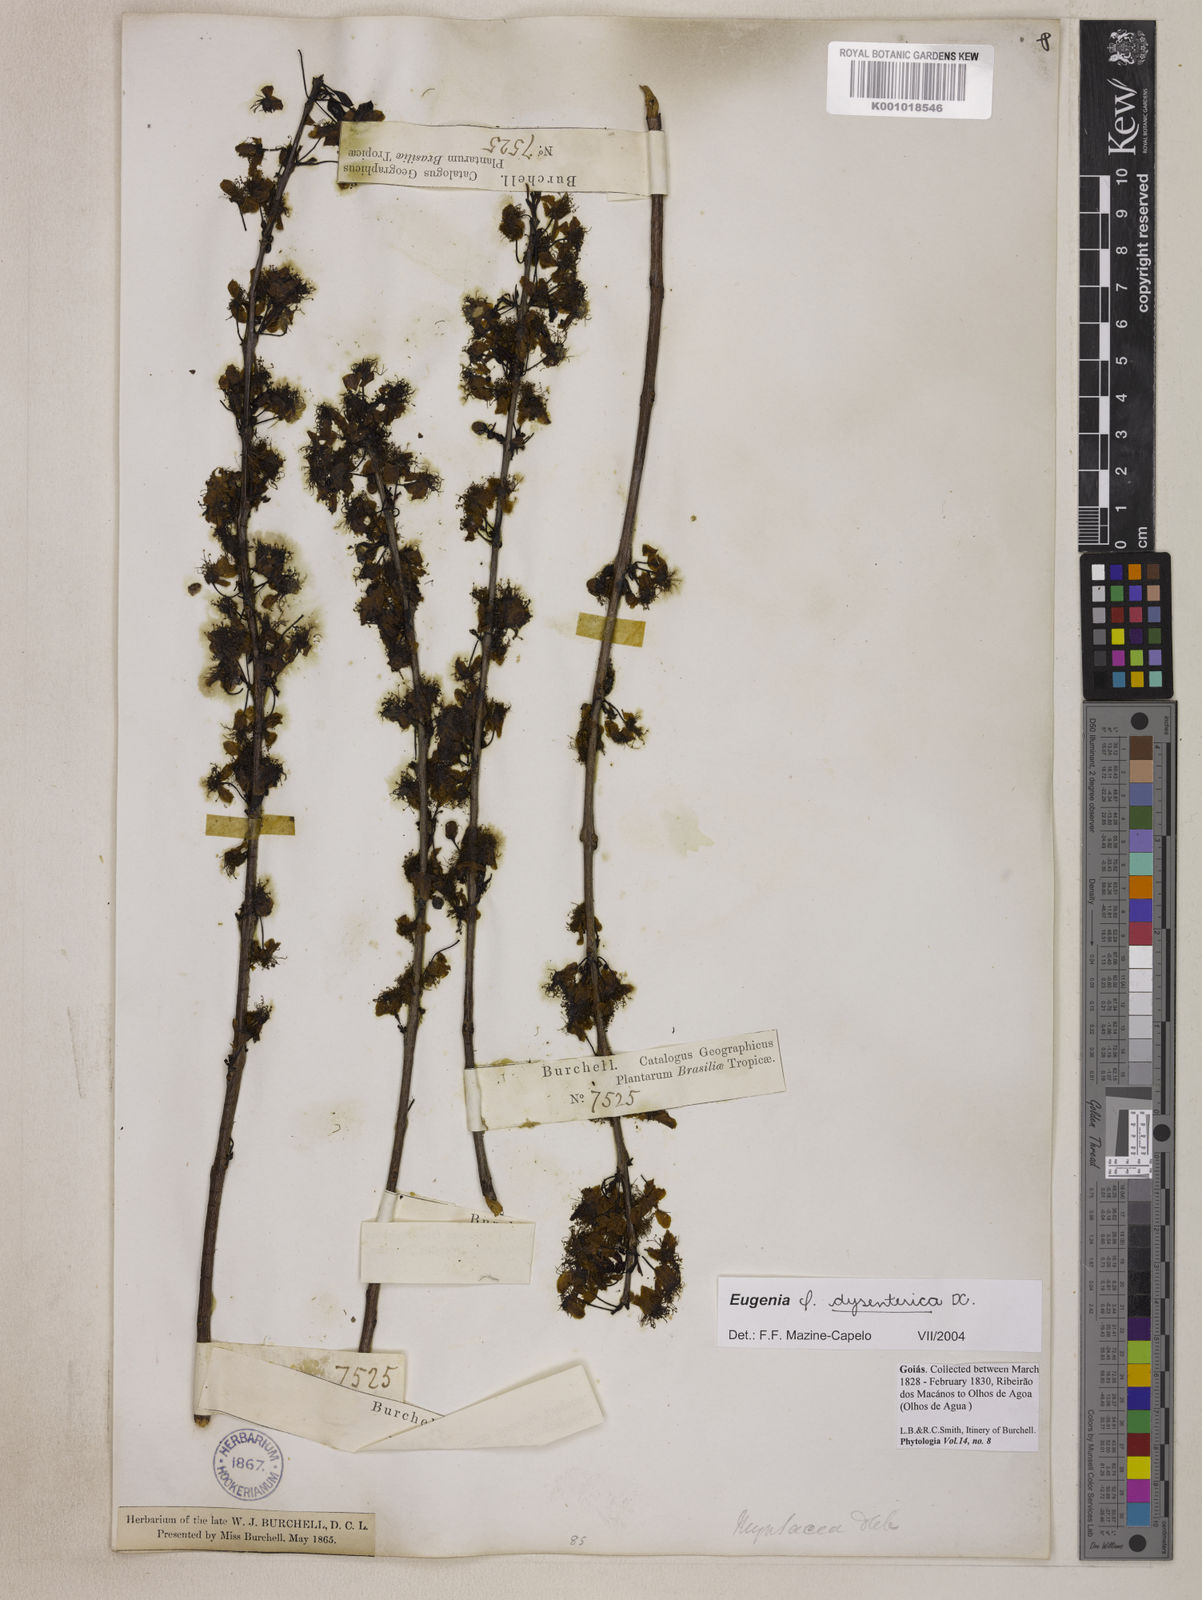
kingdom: Plantae
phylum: Tracheophyta
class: Magnoliopsida
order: Myrtales
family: Myrtaceae
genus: Eugenia
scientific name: Eugenia dysenterica
